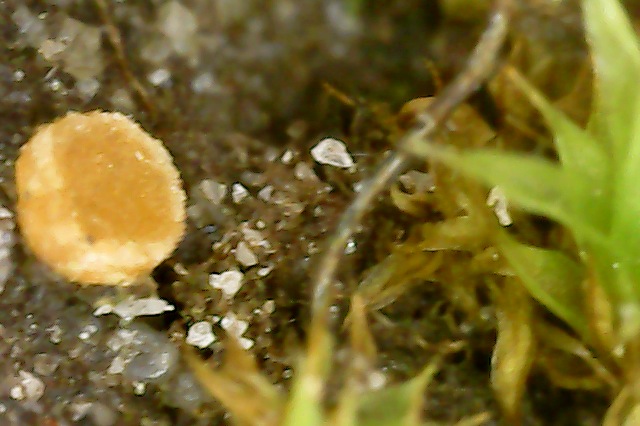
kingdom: Fungi
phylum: Ascomycota
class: Pezizomycetes
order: Pezizales
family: Pyronemataceae
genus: Octospora
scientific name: Octospora axillaris
